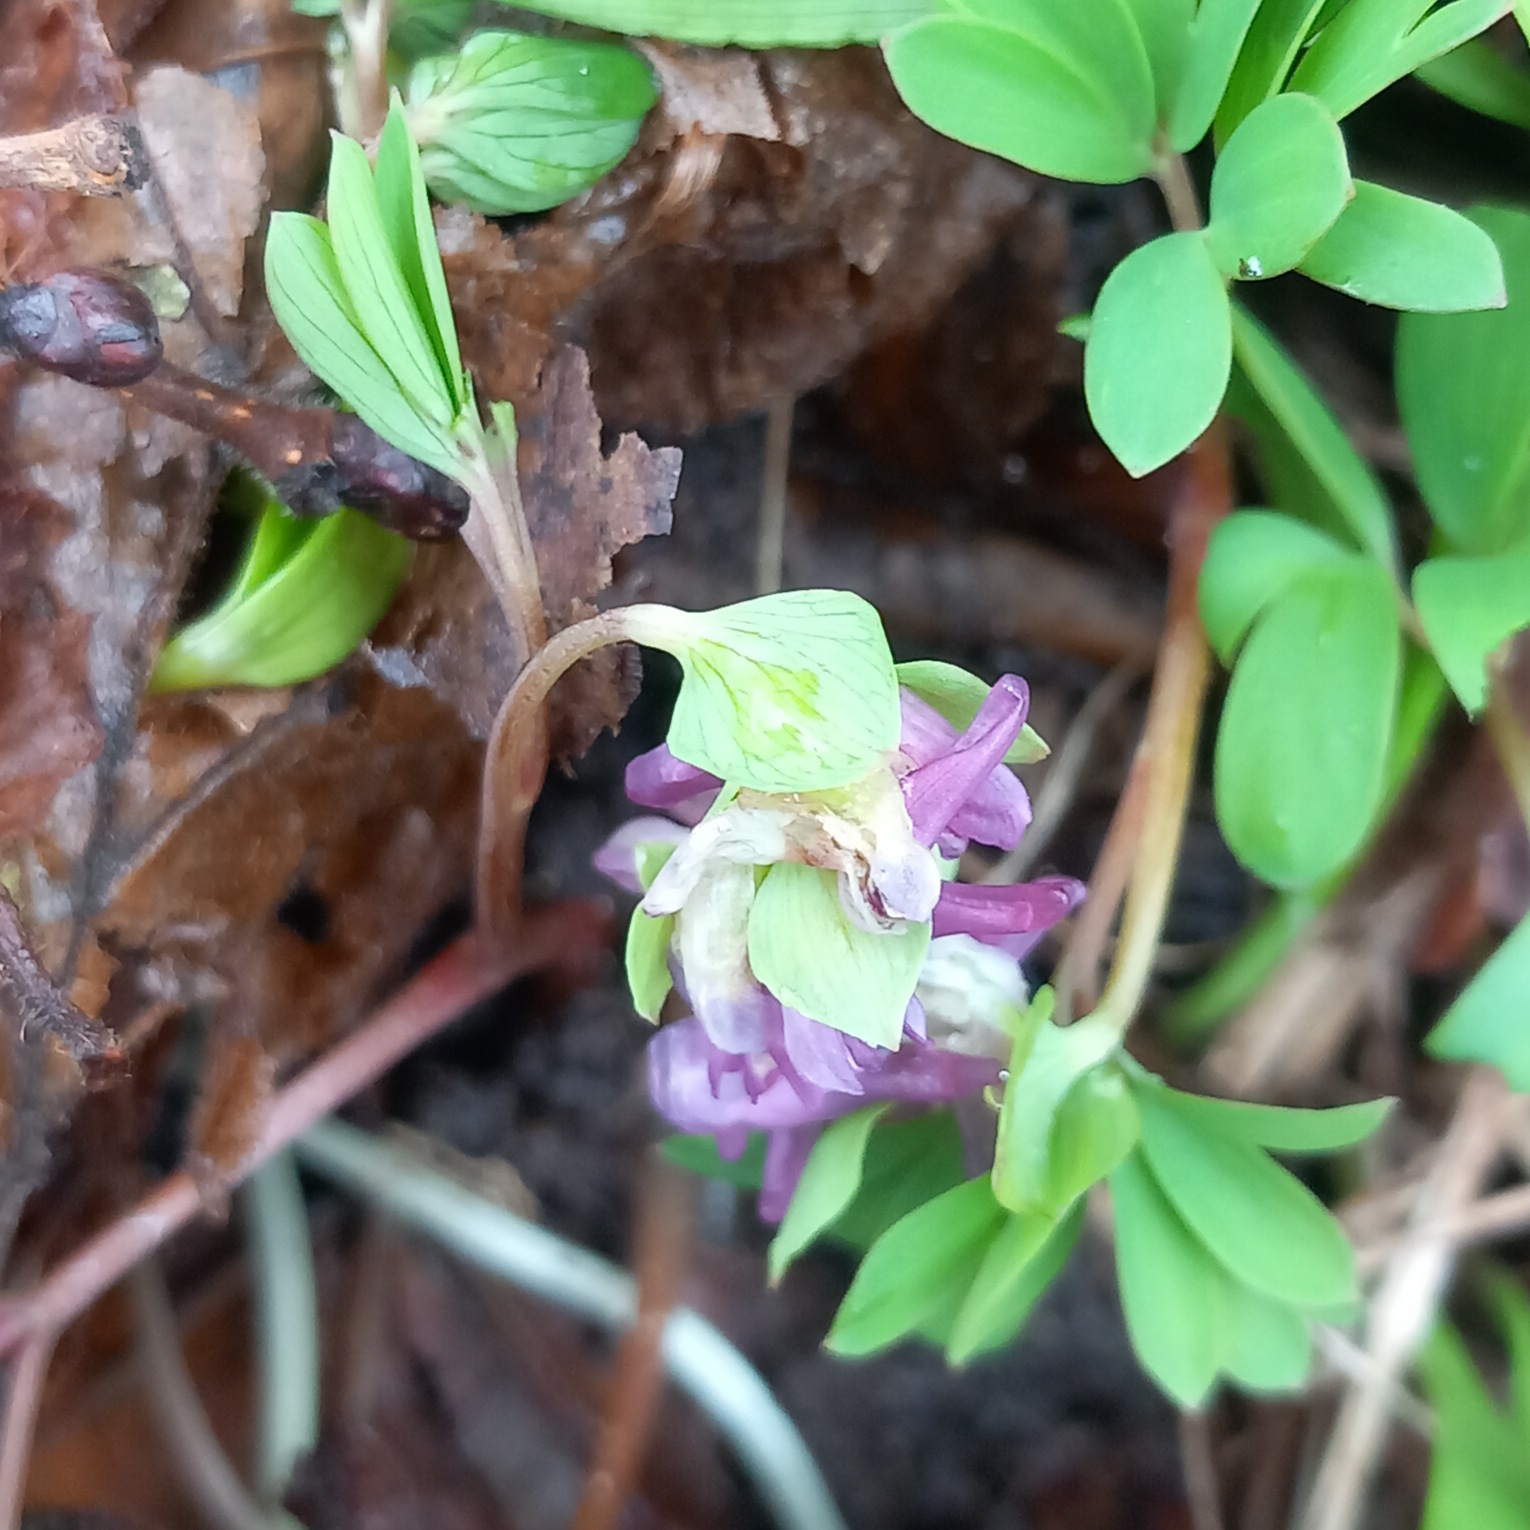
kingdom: Plantae
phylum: Tracheophyta
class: Magnoliopsida
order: Ranunculales
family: Papaveraceae
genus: Corydalis
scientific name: Corydalis intermedia
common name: Liden lærkespore
